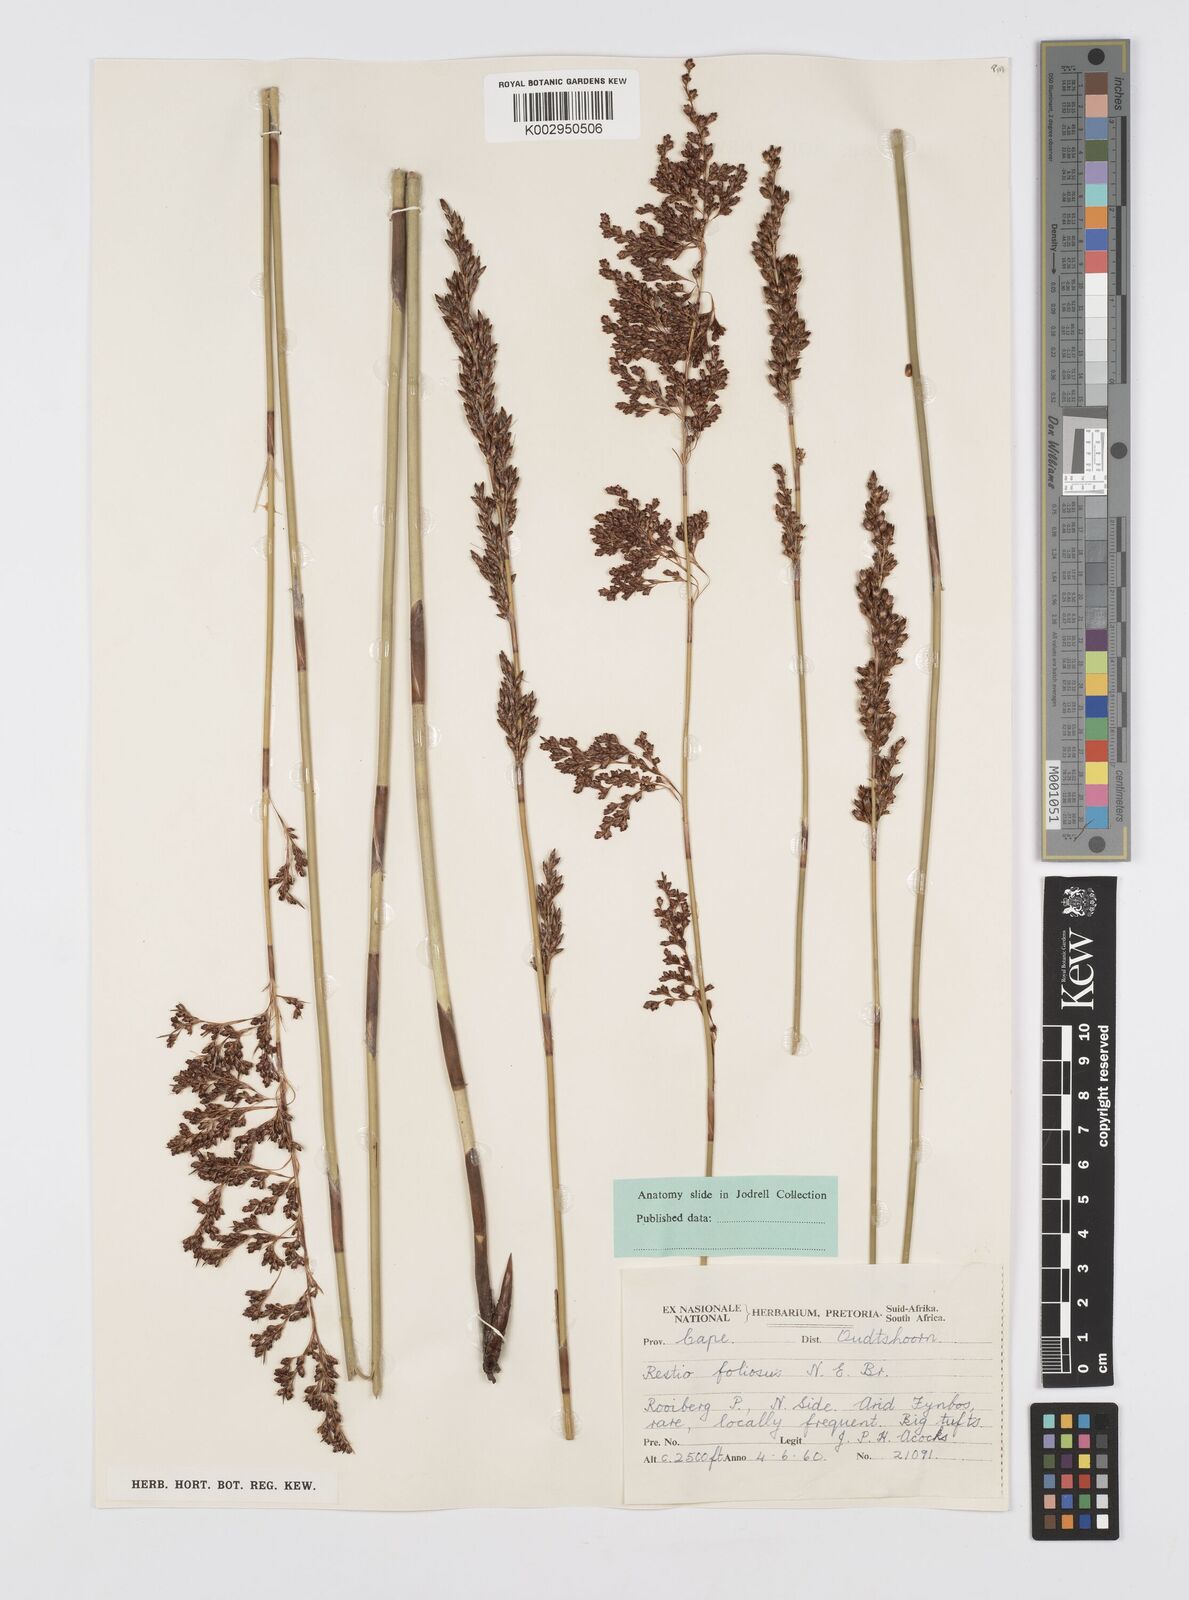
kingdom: Plantae
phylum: Tracheophyta
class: Liliopsida
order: Poales
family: Restionaceae
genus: Rhodocoma
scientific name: Rhodocoma foliosa
